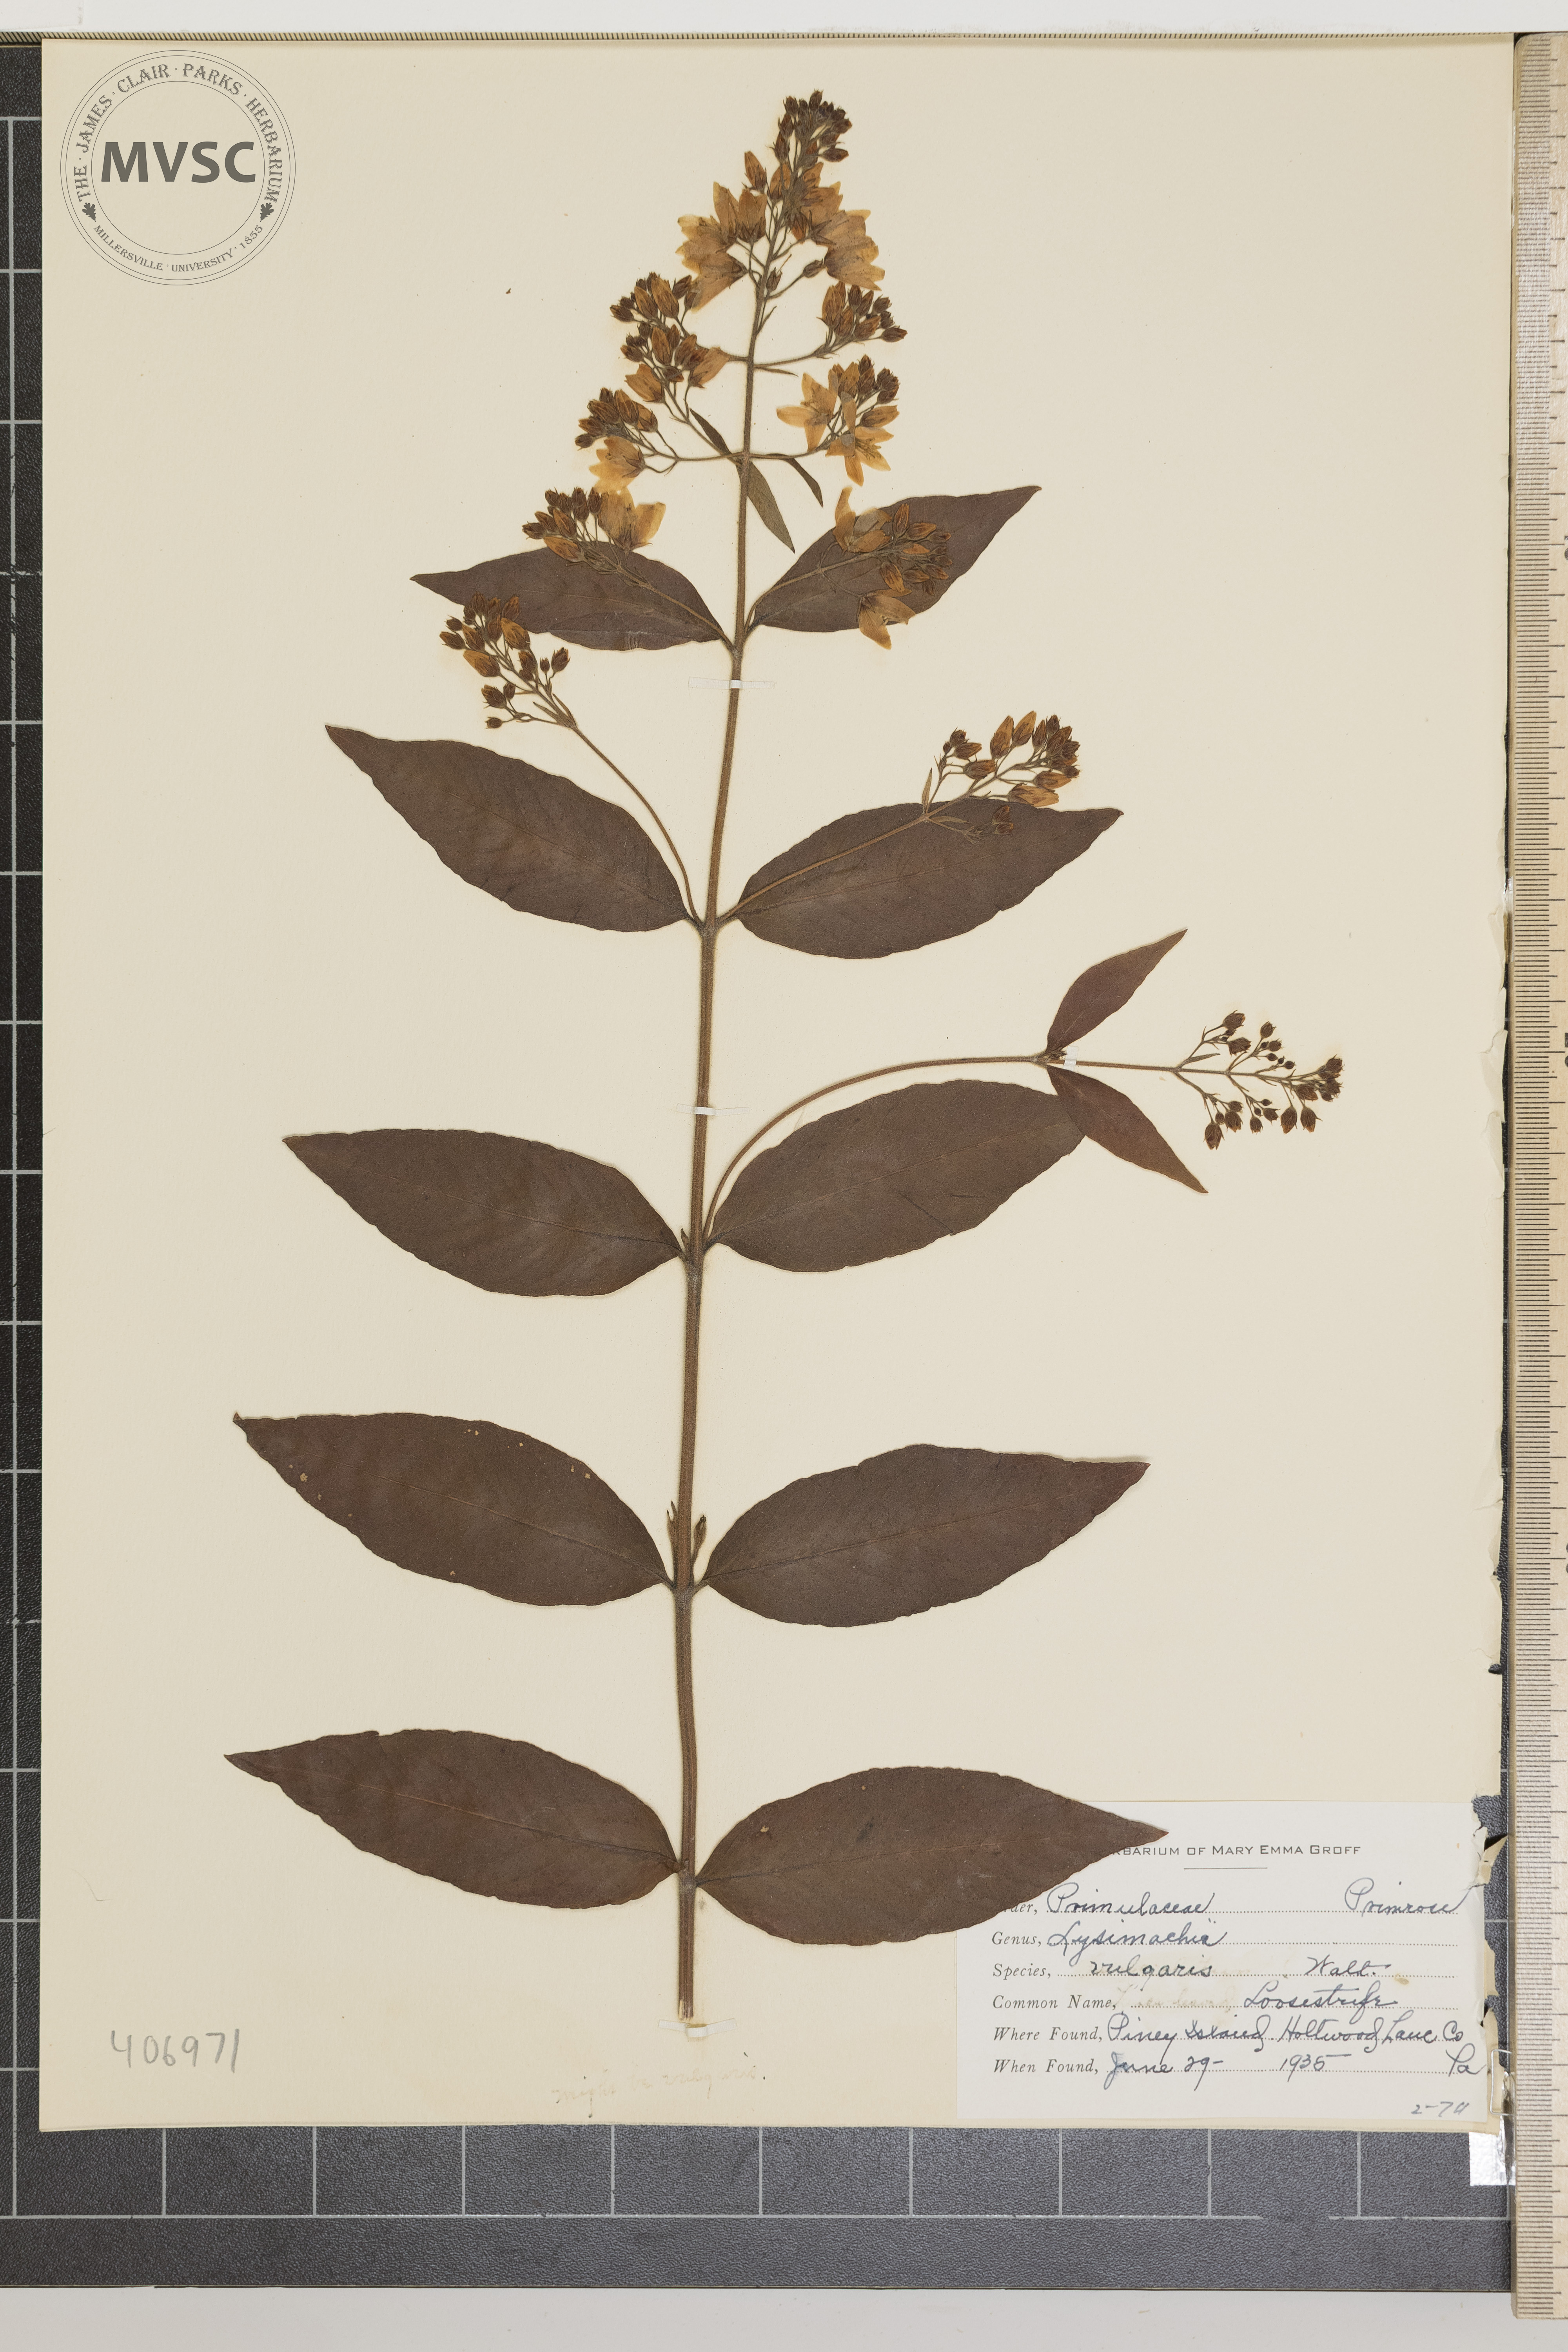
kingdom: Plantae
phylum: Tracheophyta
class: Magnoliopsida
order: Ericales
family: Primulaceae
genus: Lysimachia
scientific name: Lysimachia vulgaris
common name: Loosestrife
